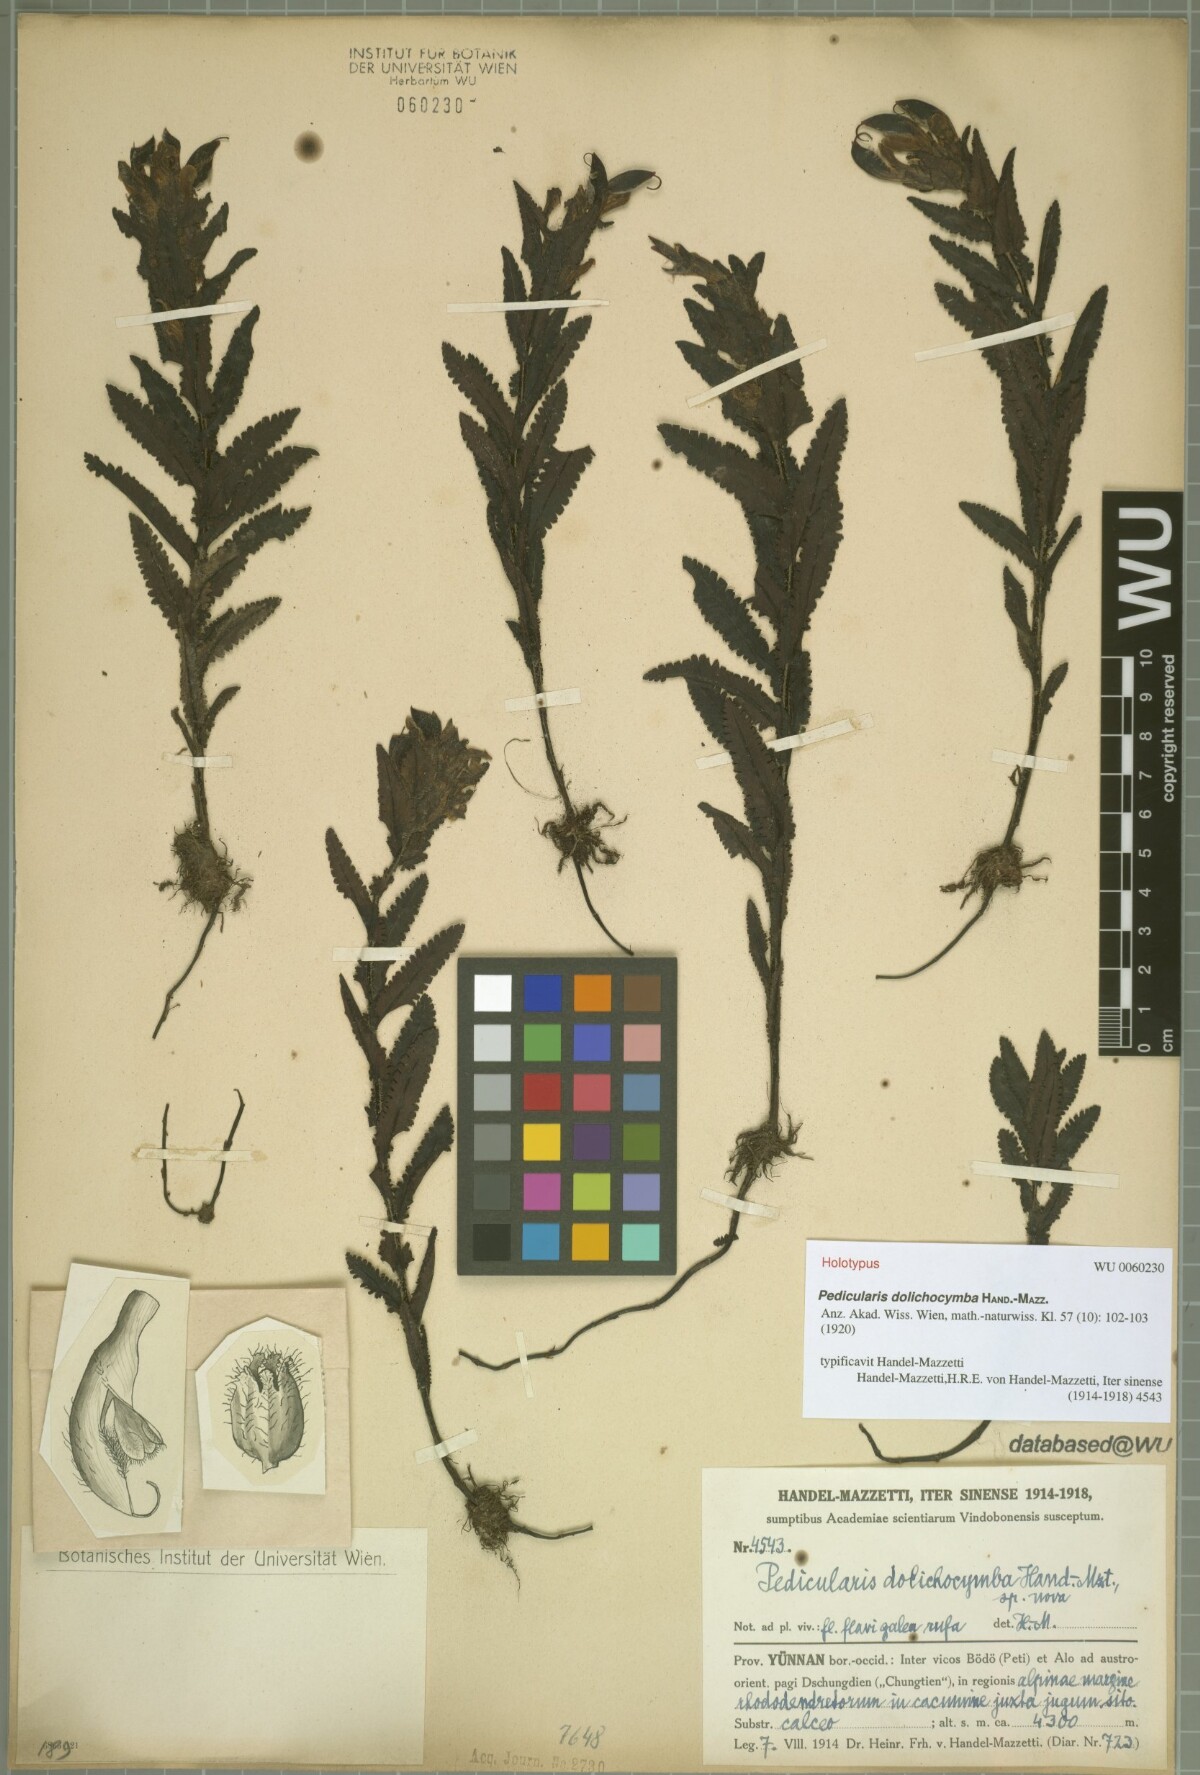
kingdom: Plantae
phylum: Tracheophyta
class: Magnoliopsida
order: Lamiales
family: Orobanchaceae
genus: Pedicularis
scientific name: Pedicularis dolichocymba
